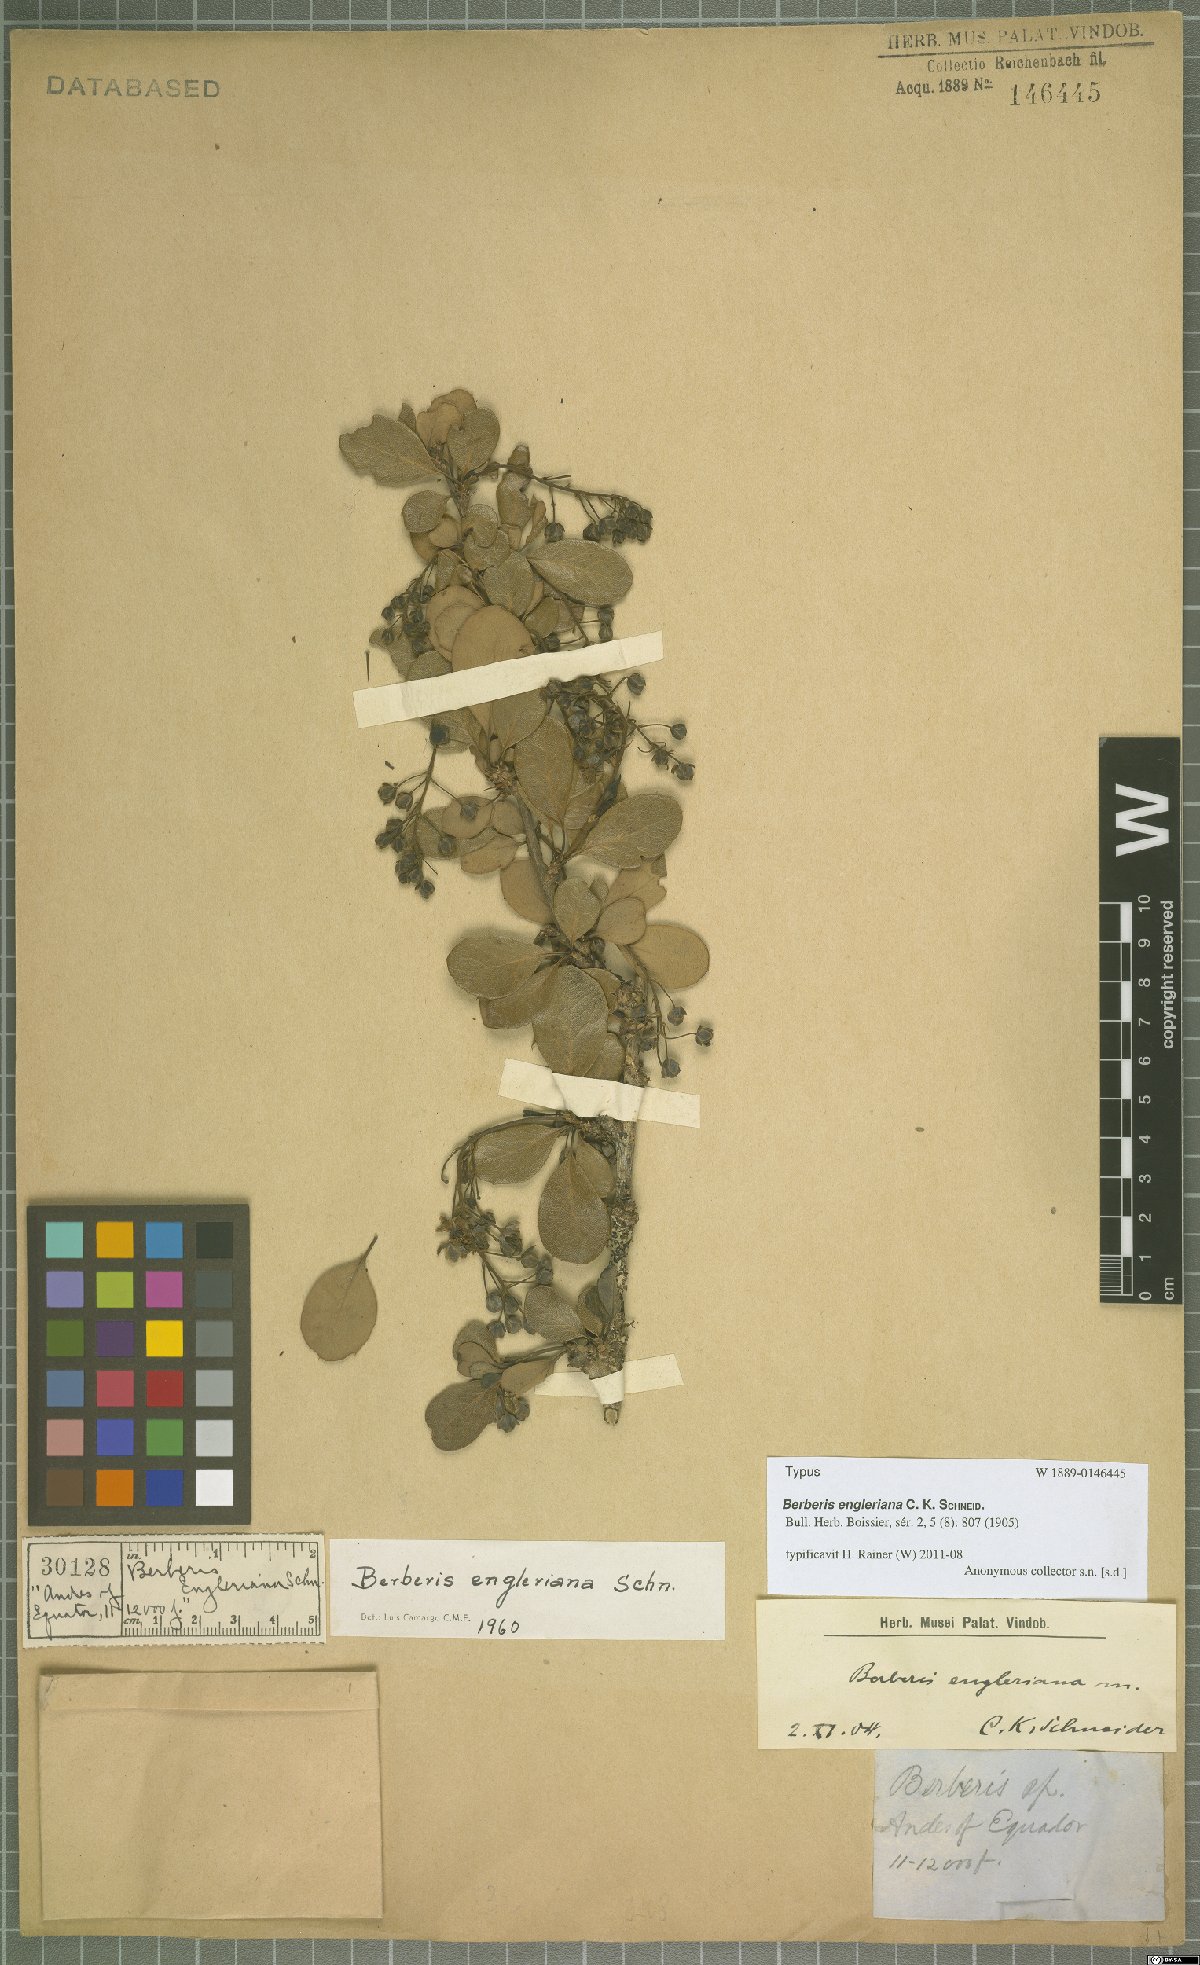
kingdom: Plantae
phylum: Tracheophyta
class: Magnoliopsida
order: Ranunculales
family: Berberidaceae
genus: Berberis
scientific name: Berberis engleriana
